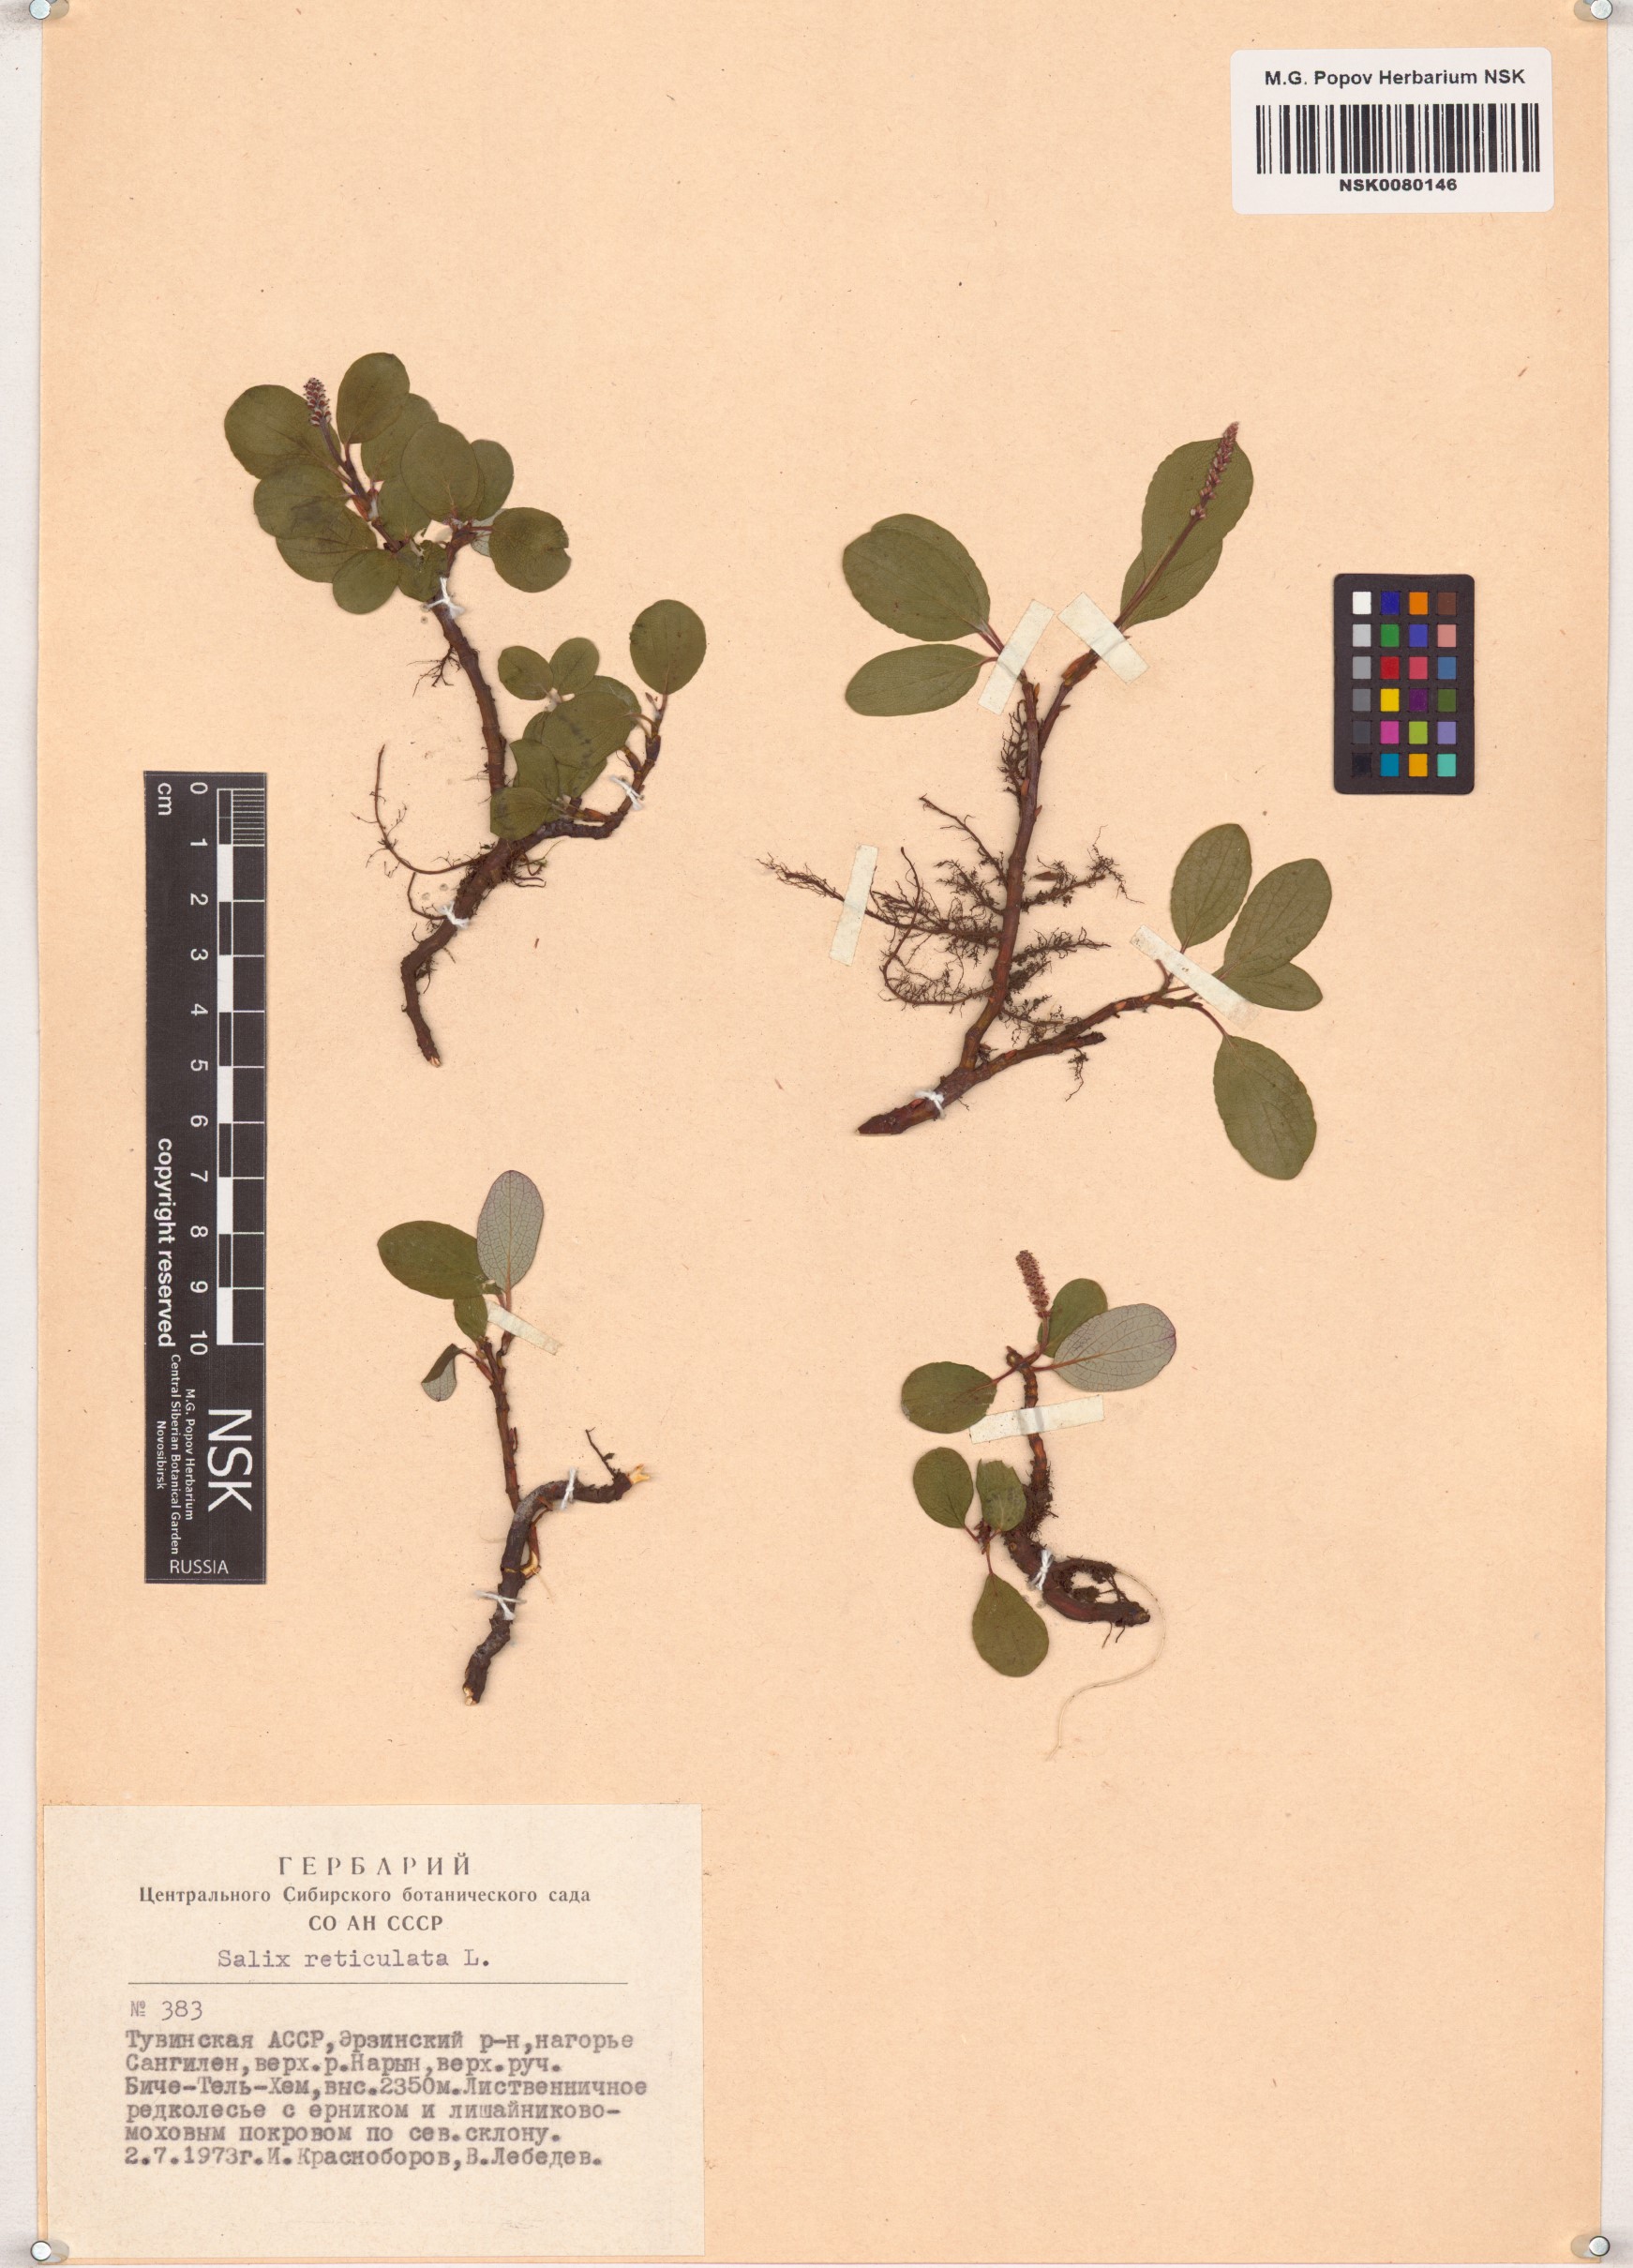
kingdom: Plantae
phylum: Tracheophyta
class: Magnoliopsida
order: Malpighiales
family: Salicaceae
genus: Salix
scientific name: Salix reticulata
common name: Net-leaved willow
